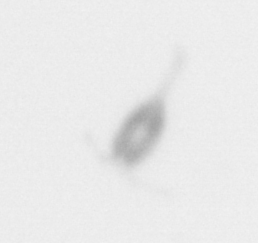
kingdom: Animalia
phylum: Arthropoda
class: Copepoda
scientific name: Copepoda
